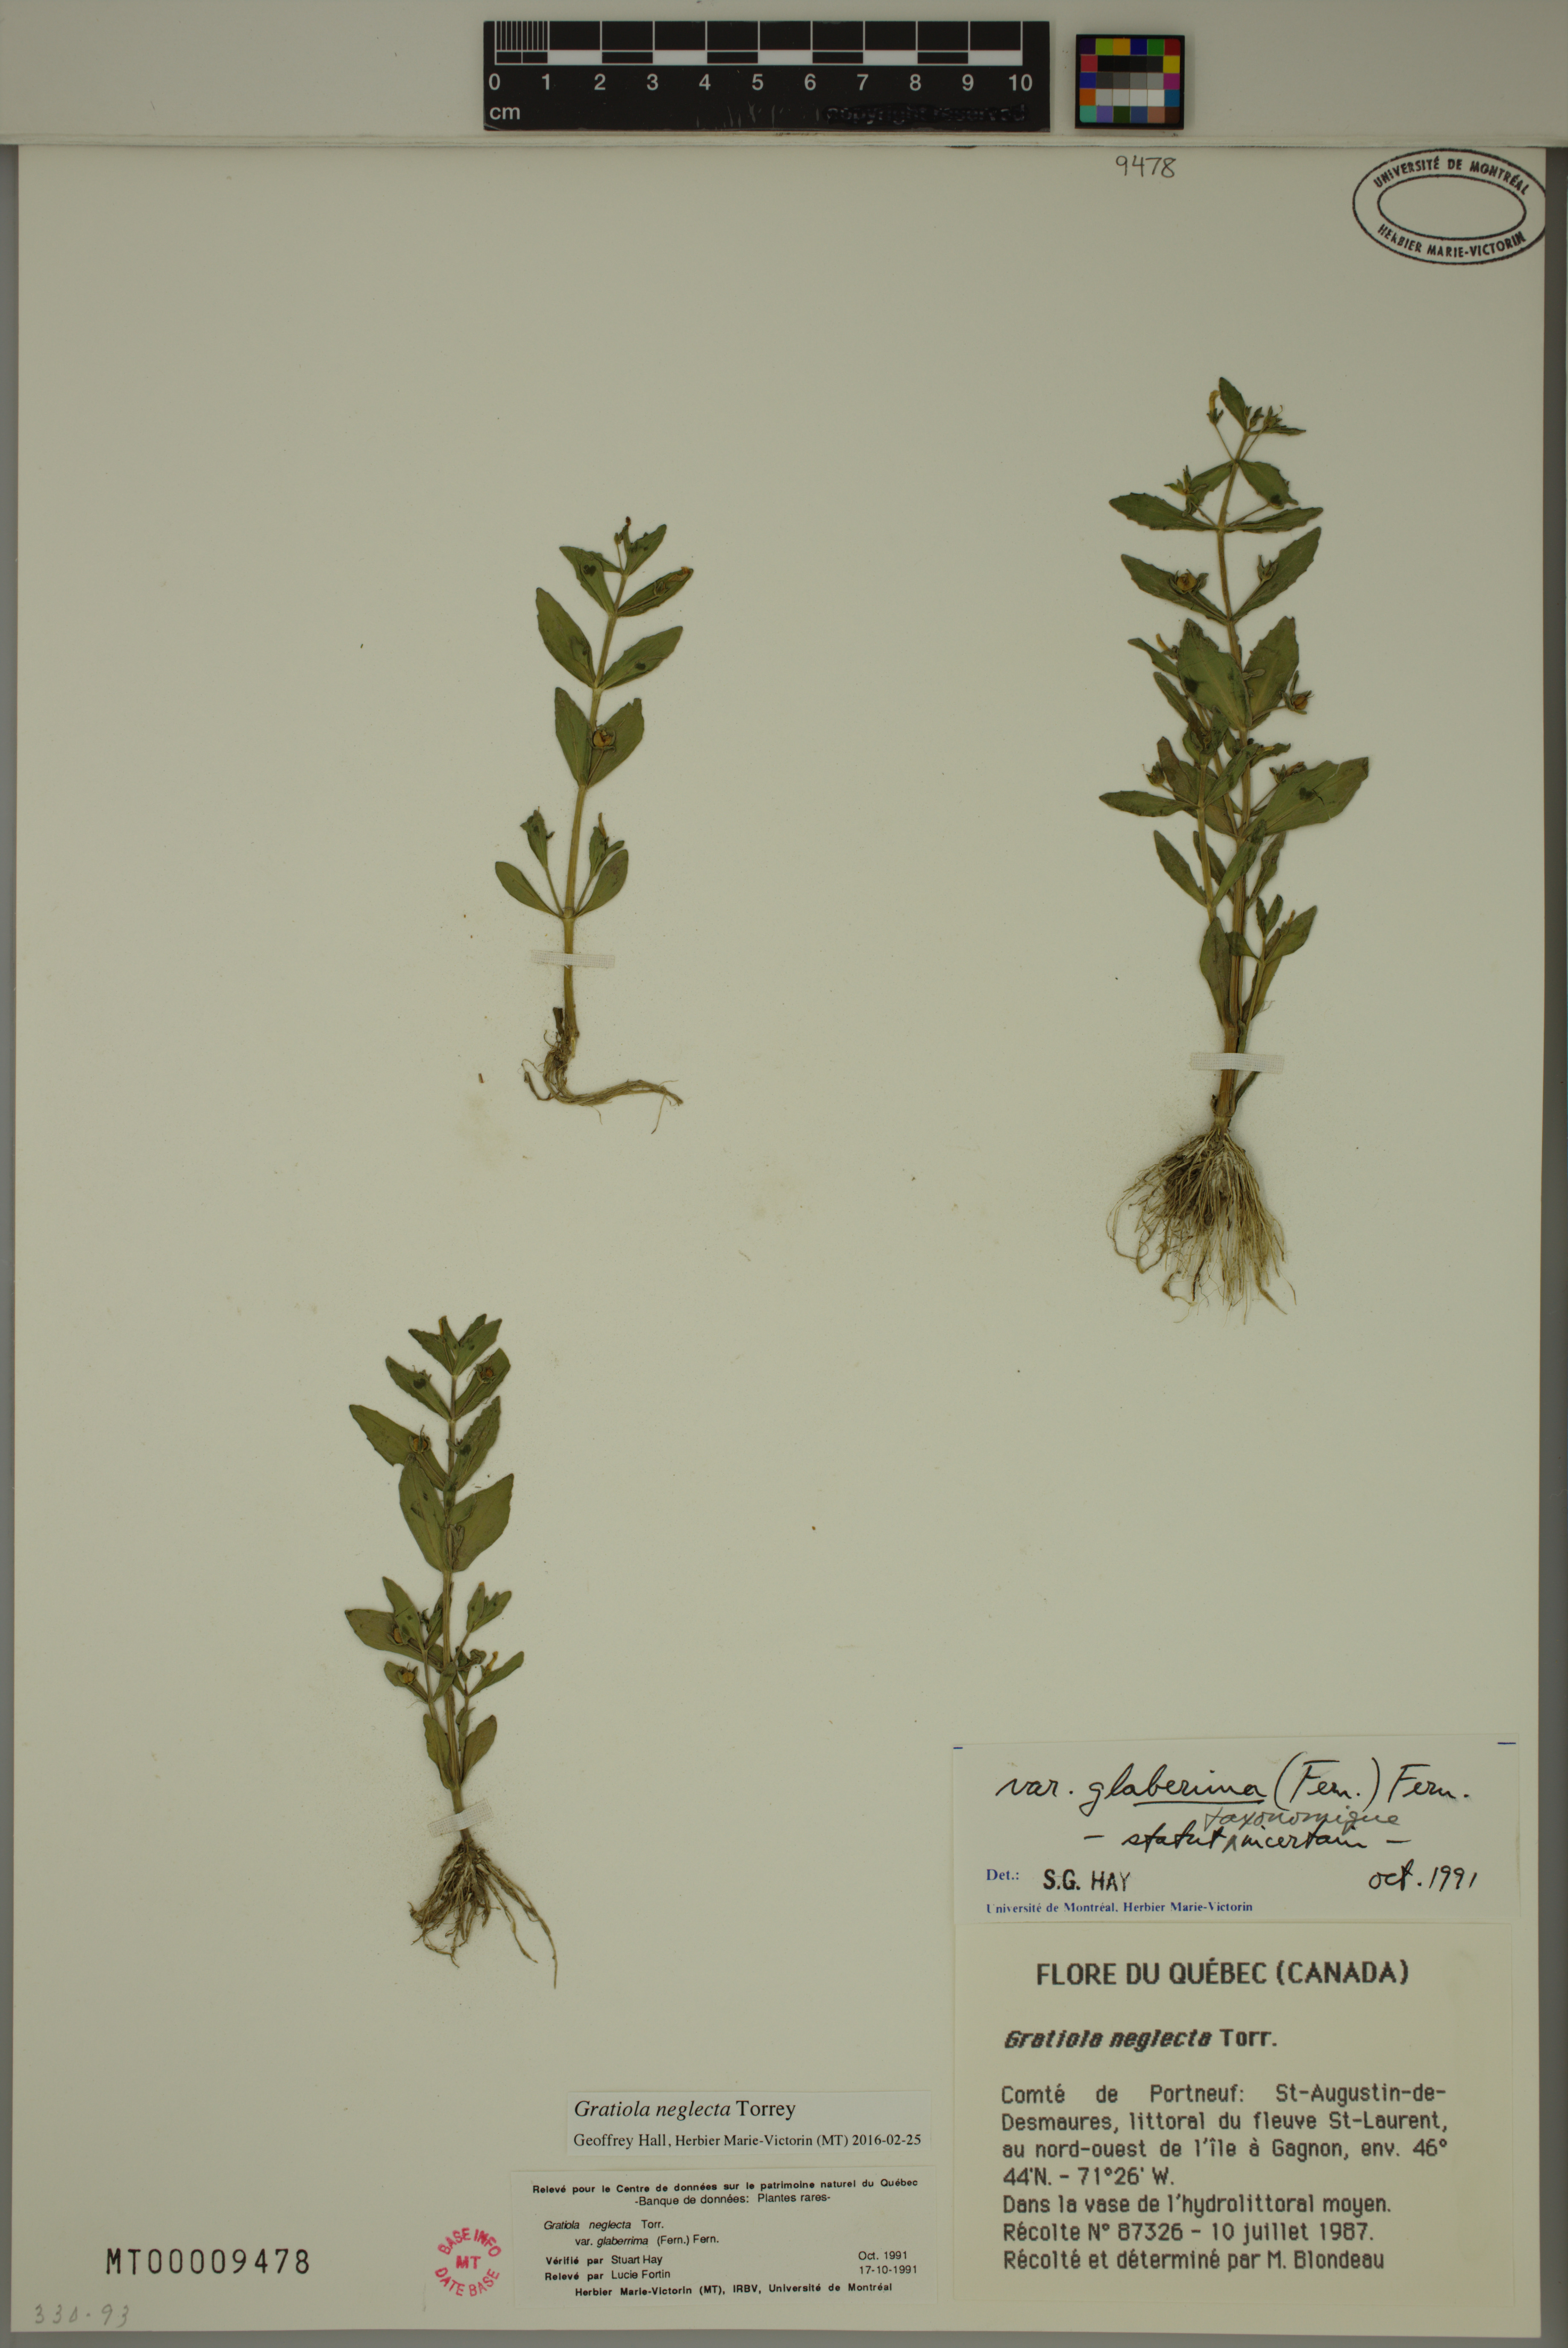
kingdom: Plantae
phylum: Tracheophyta
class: Magnoliopsida
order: Lamiales
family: Plantaginaceae
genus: Gratiola
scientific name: Gratiola neglecta
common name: American hedge-hyssop
